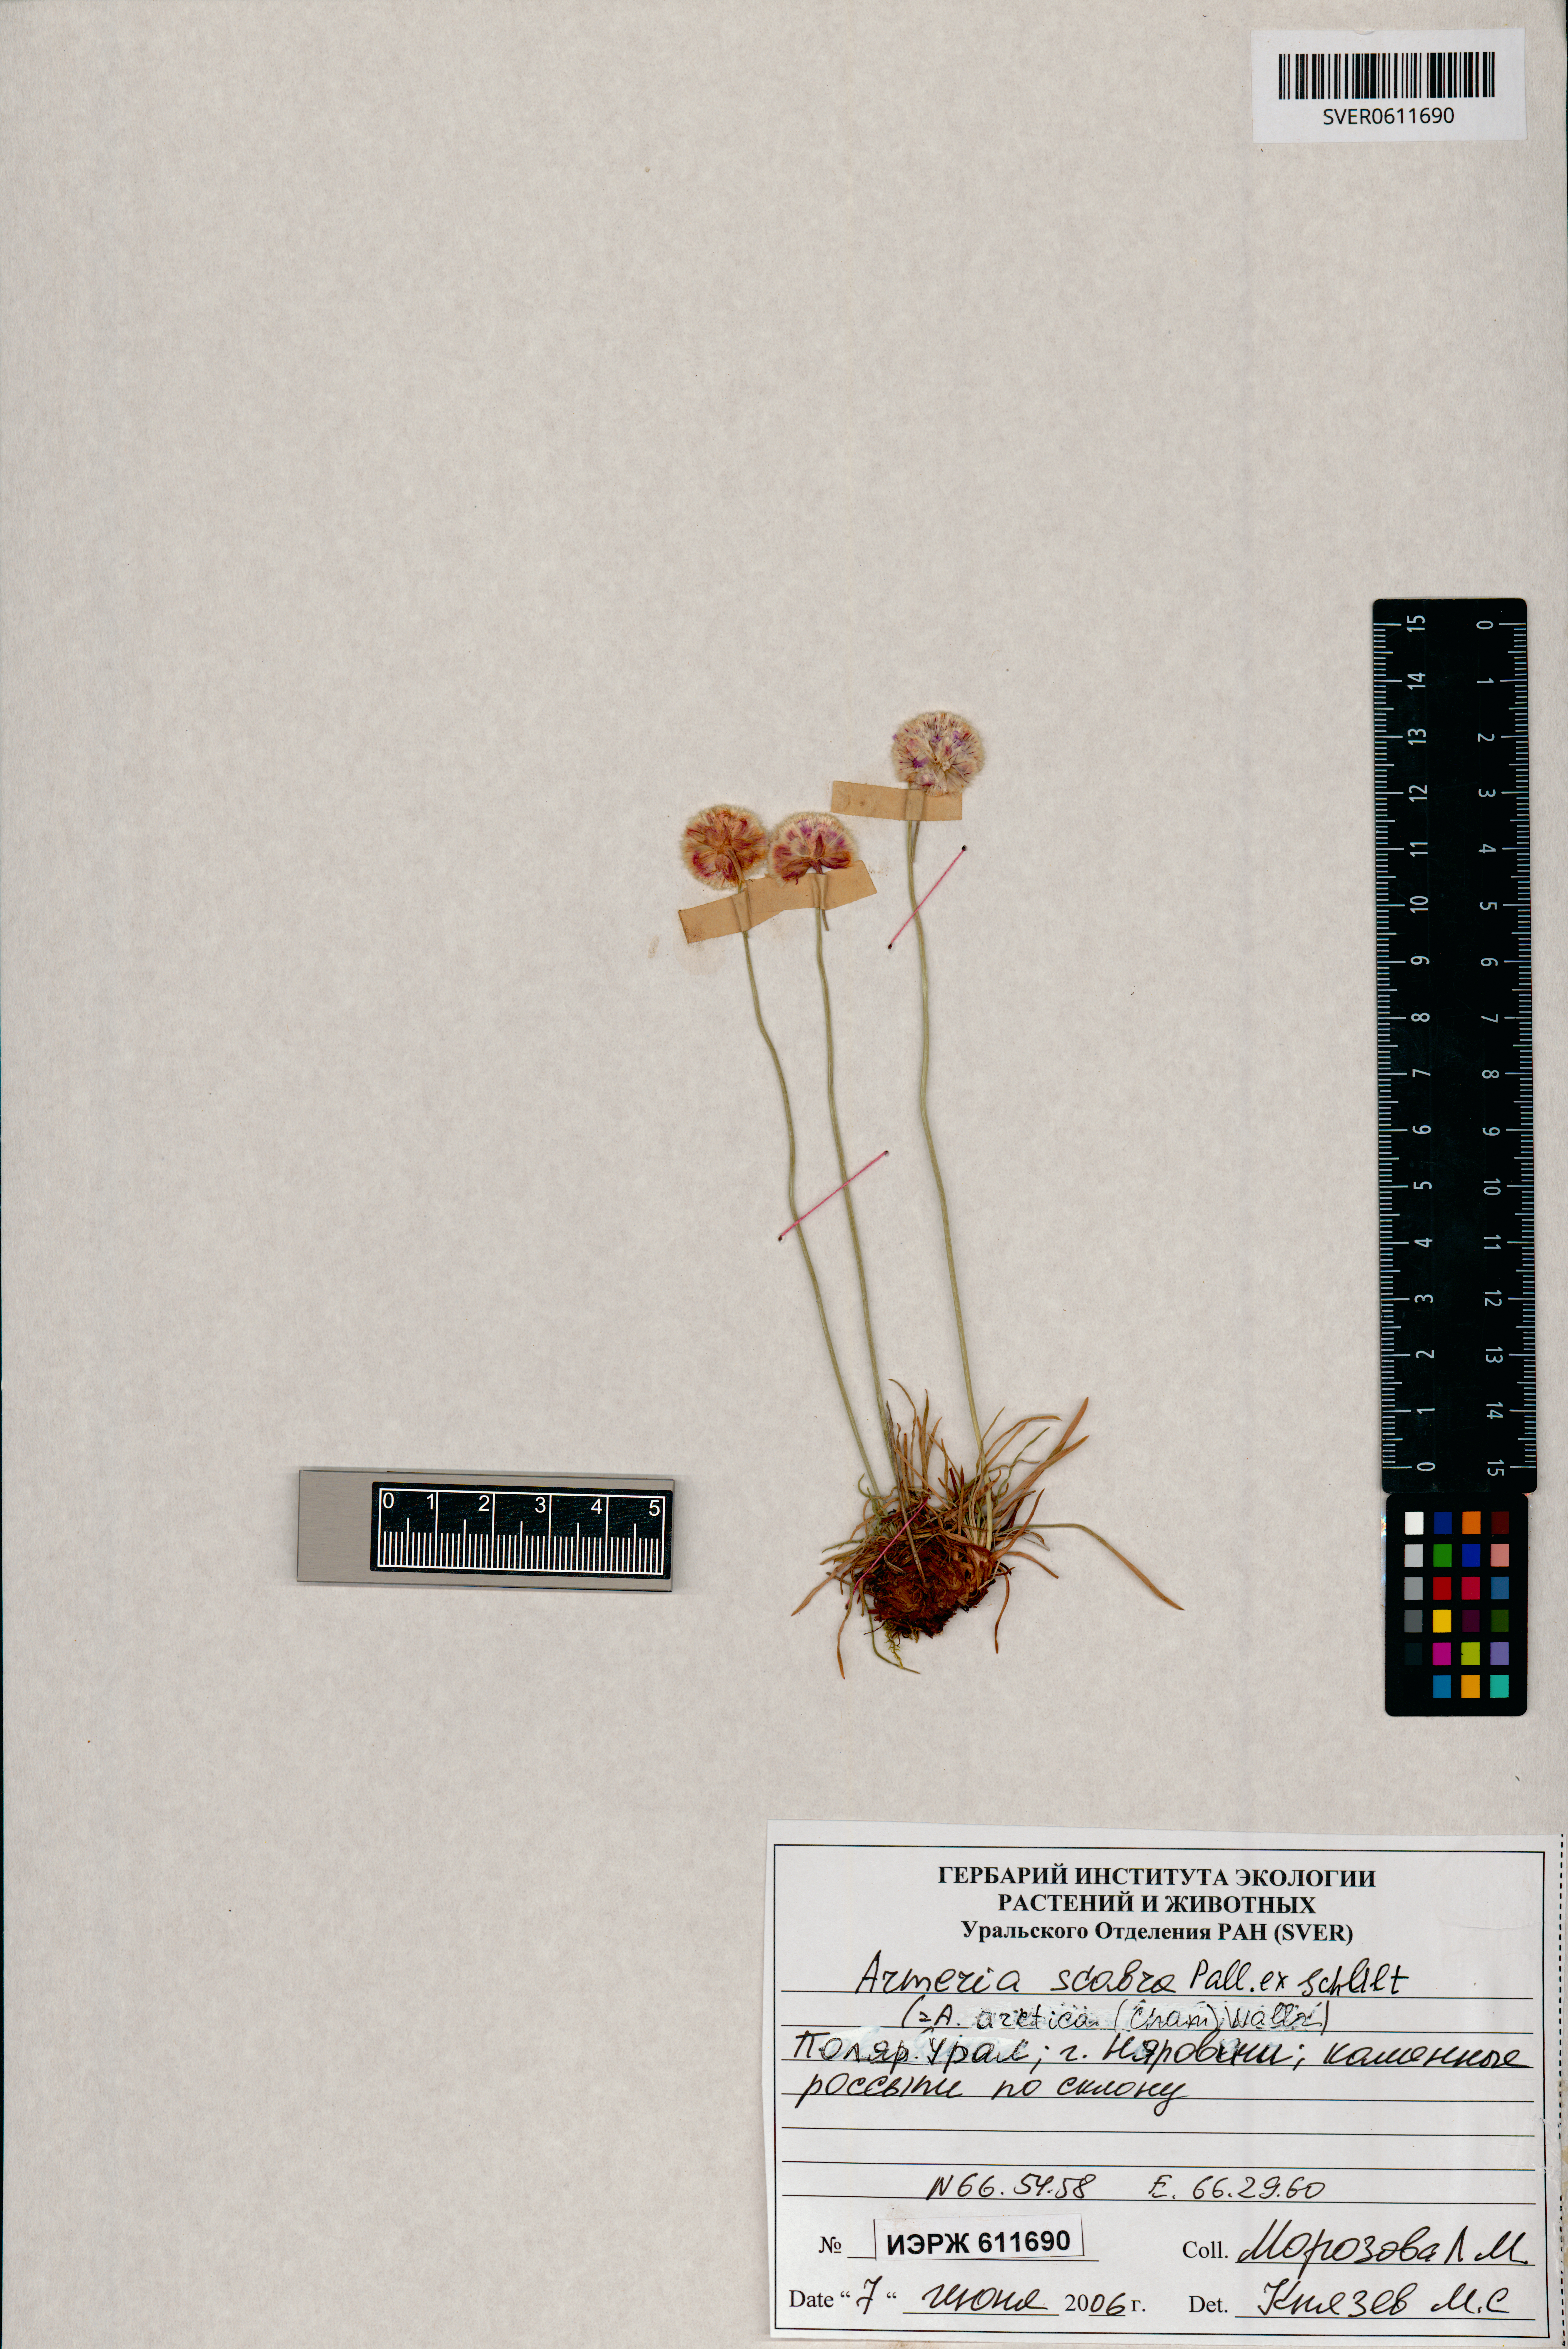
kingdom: Plantae
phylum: Tracheophyta
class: Magnoliopsida
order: Caryophyllales
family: Plumbaginaceae
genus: Armeria
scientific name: Armeria maritima
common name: Thrift
